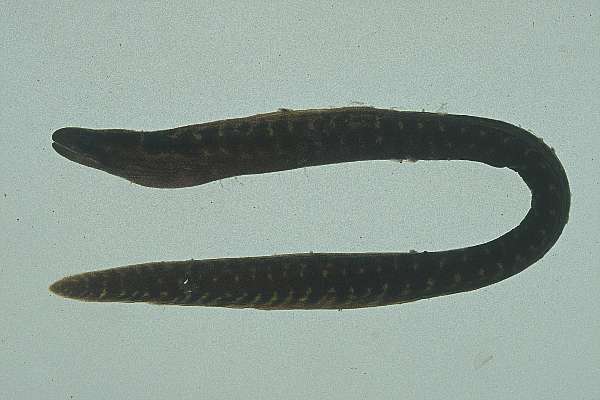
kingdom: Animalia
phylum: Chordata
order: Anguilliformes
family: Muraenidae
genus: Gymnothorax
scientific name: Gymnothorax margaritophorus
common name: Blotch-necked moray
